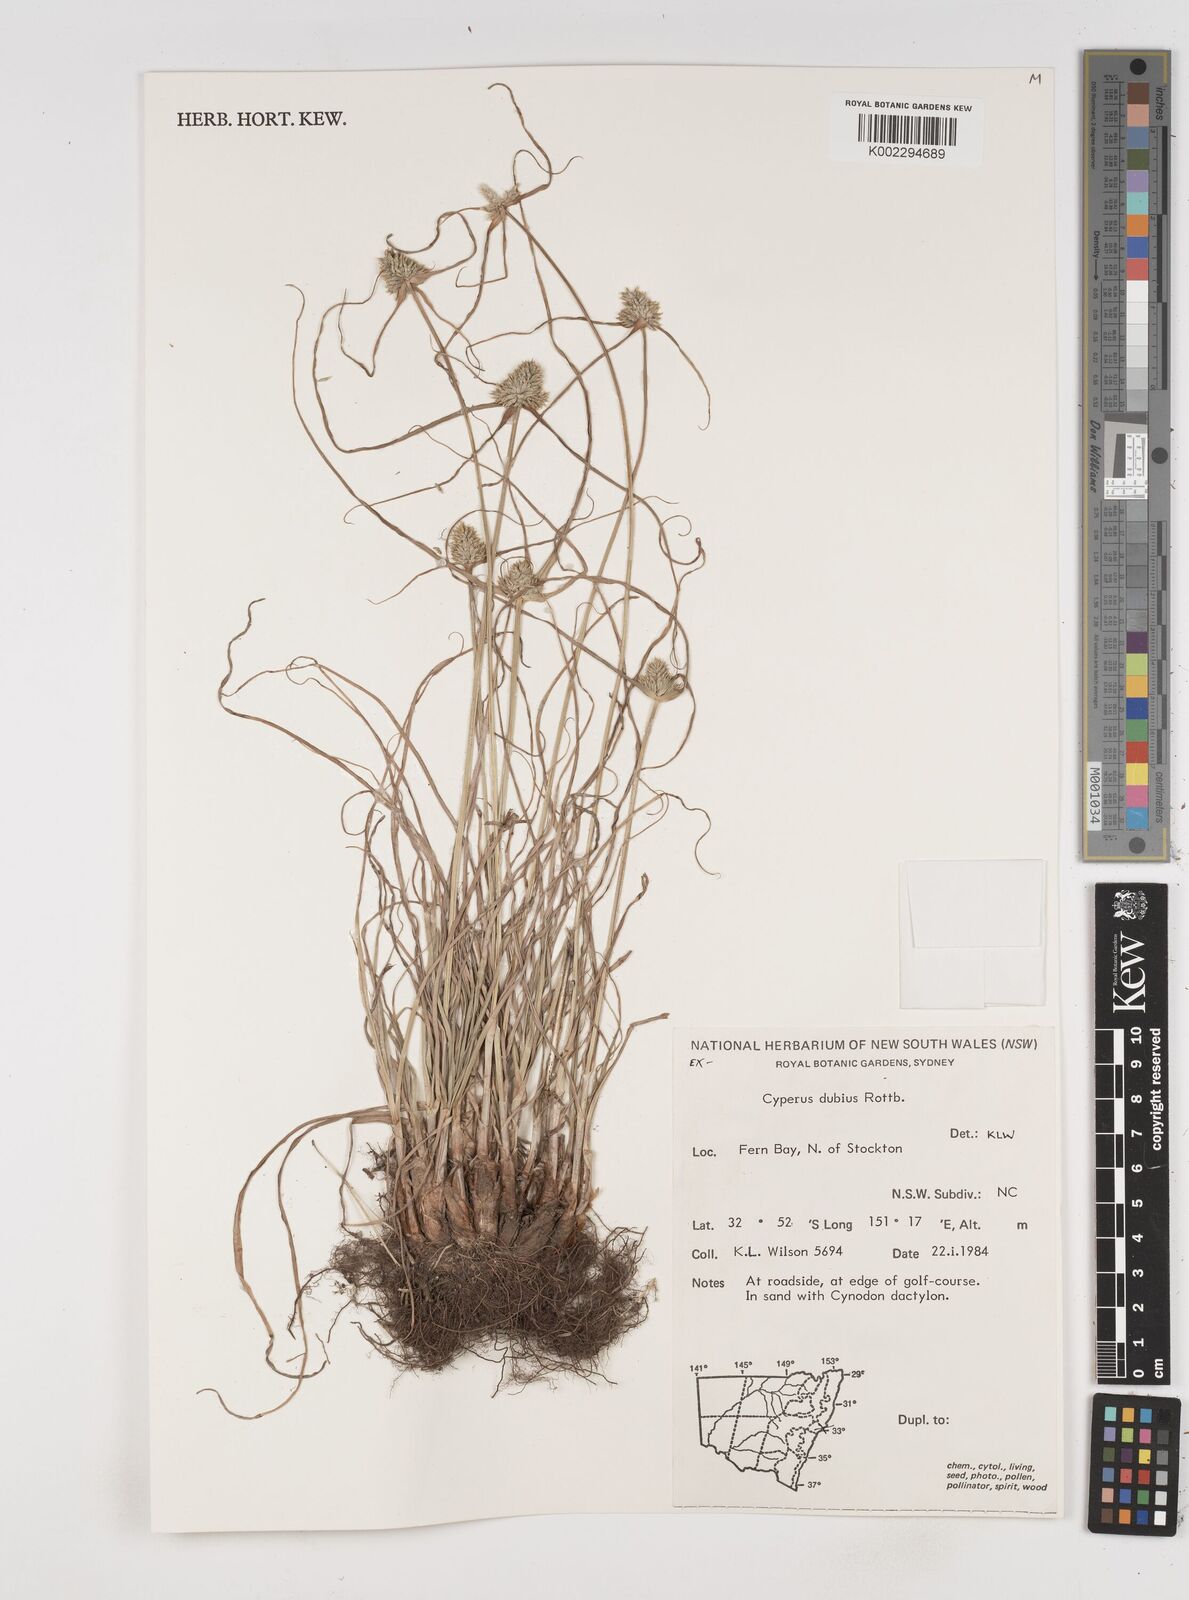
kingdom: Plantae
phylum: Tracheophyta
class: Liliopsida
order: Poales
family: Cyperaceae
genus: Cyperus
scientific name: Cyperus dubius
